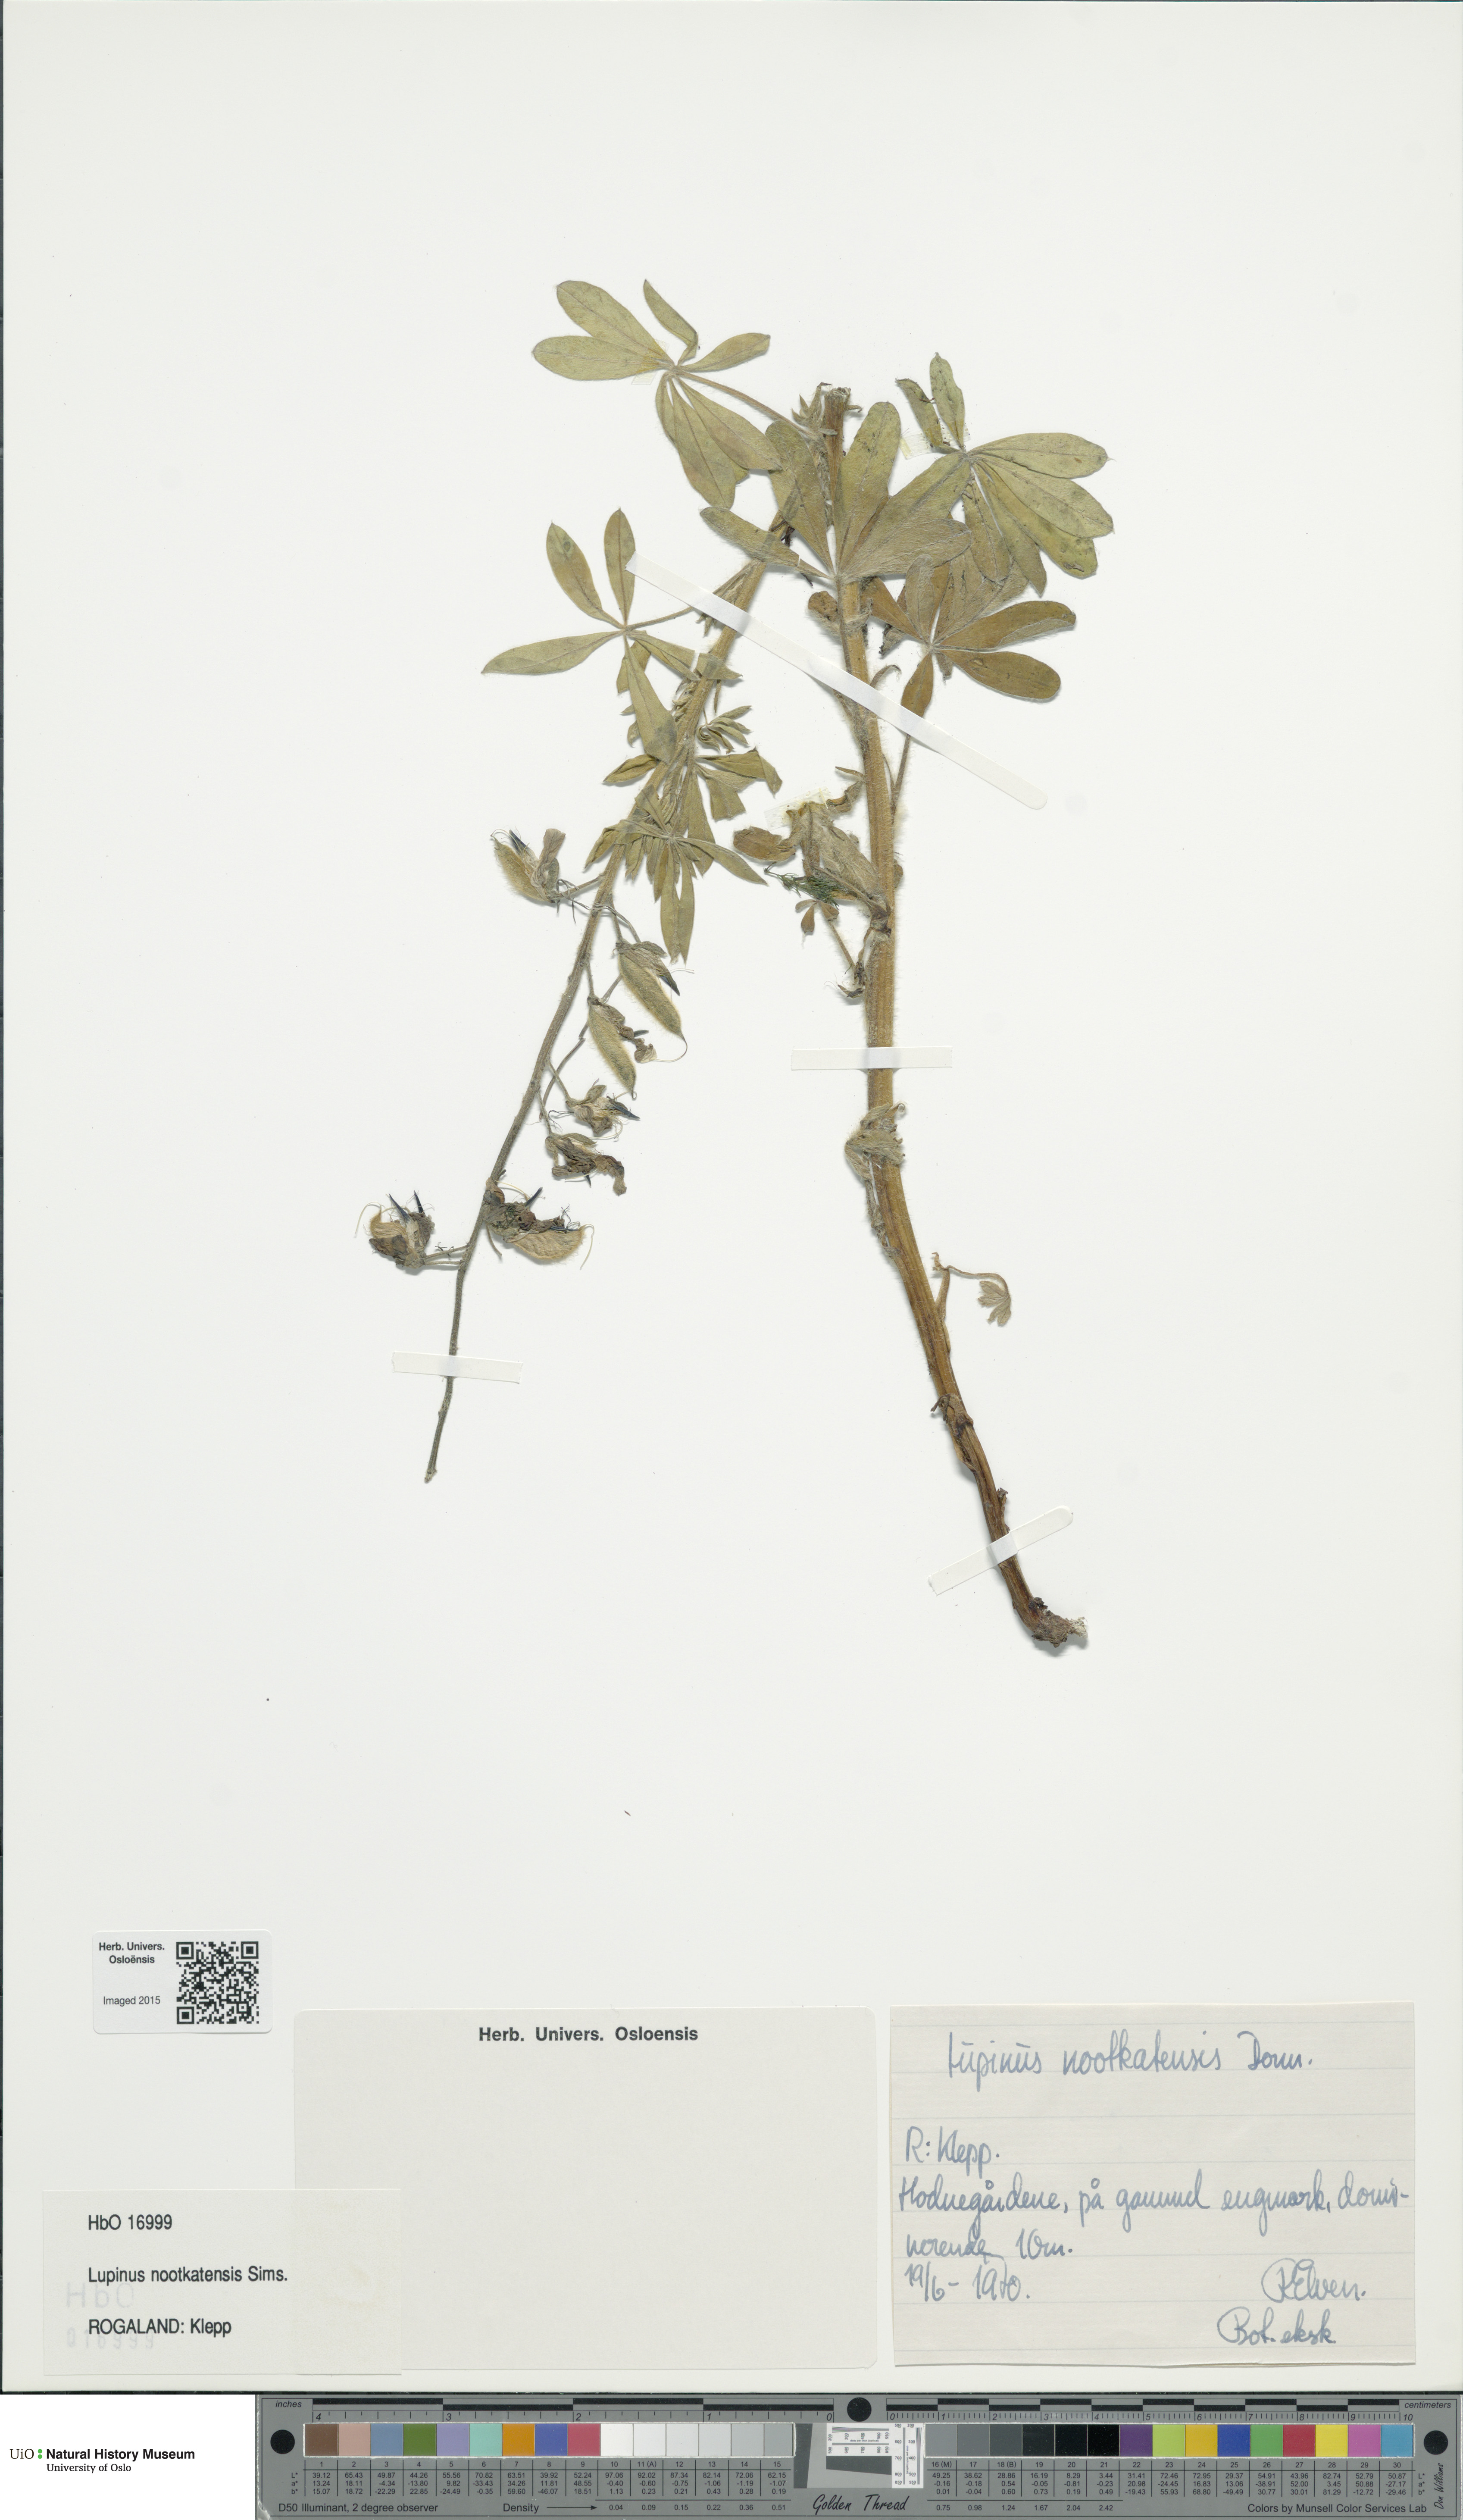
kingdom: Plantae
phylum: Tracheophyta
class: Magnoliopsida
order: Fabales
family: Fabaceae
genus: Lupinus
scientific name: Lupinus nootkatensis
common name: Nootka lupine
